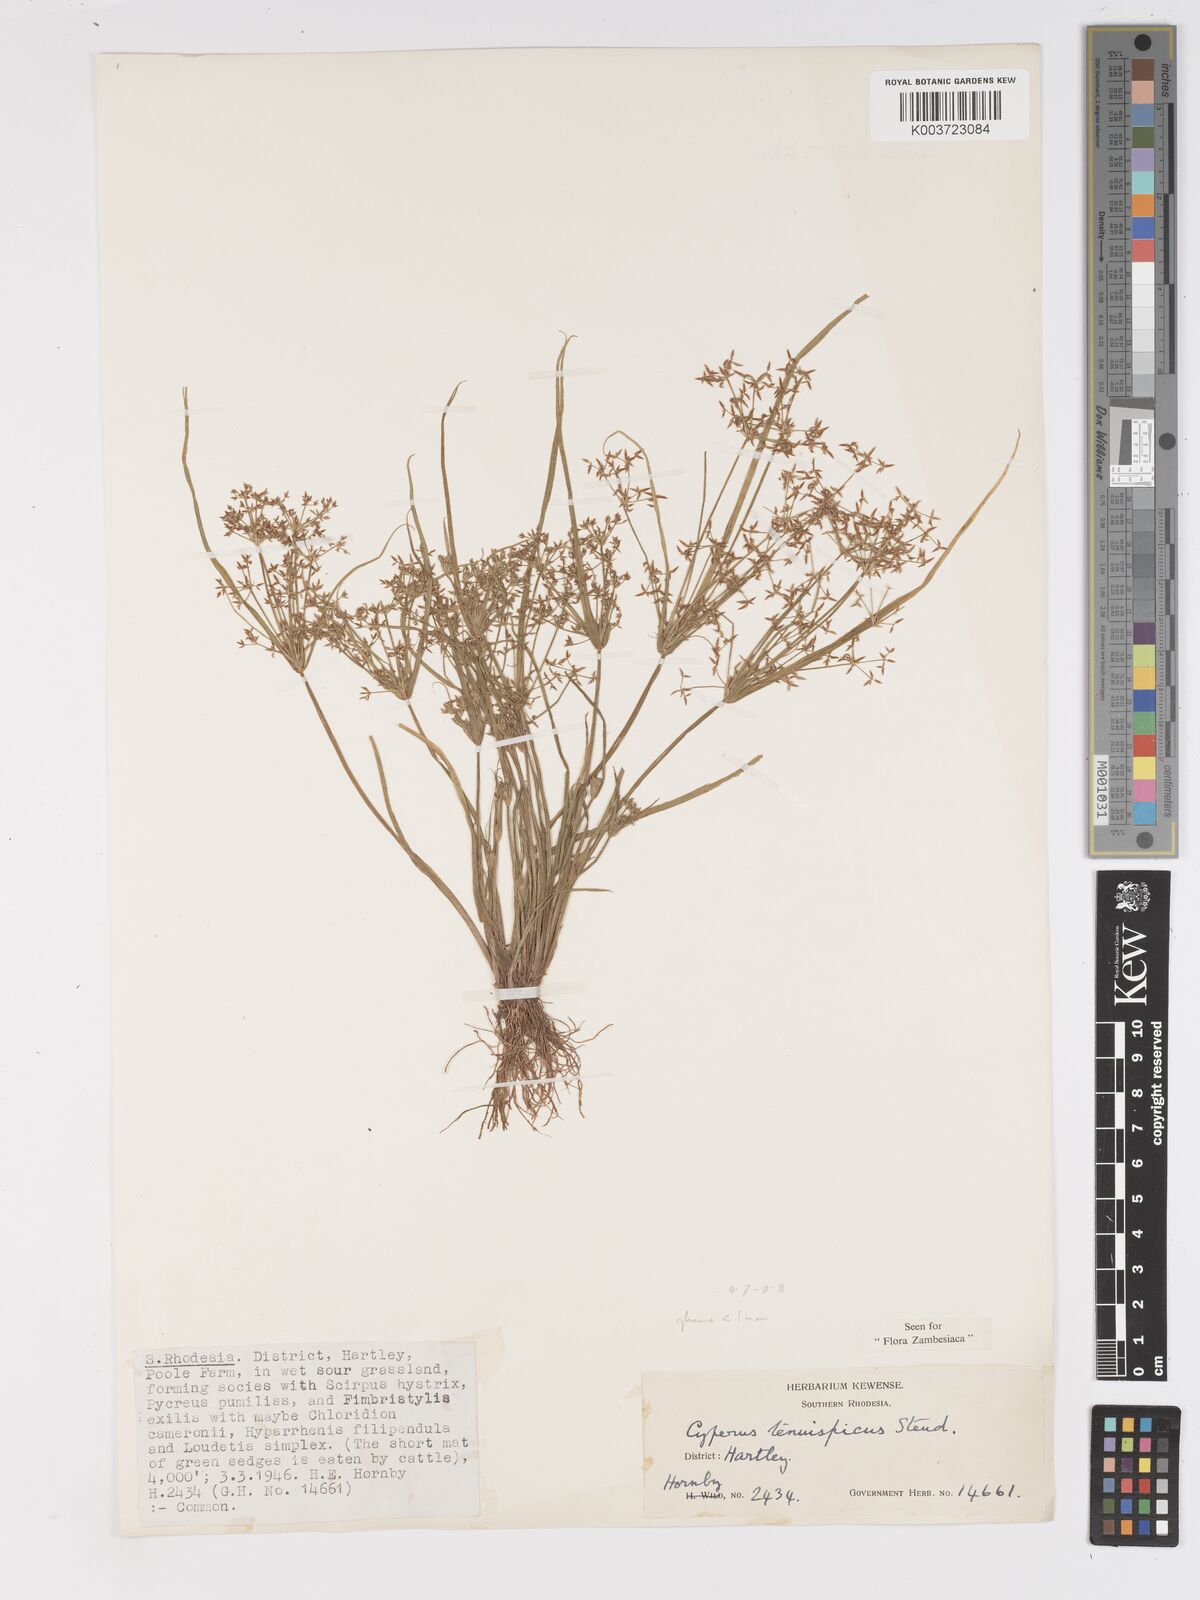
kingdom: Plantae
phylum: Tracheophyta
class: Liliopsida
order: Poales
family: Cyperaceae
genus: Cyperus
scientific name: Cyperus tenuispica
